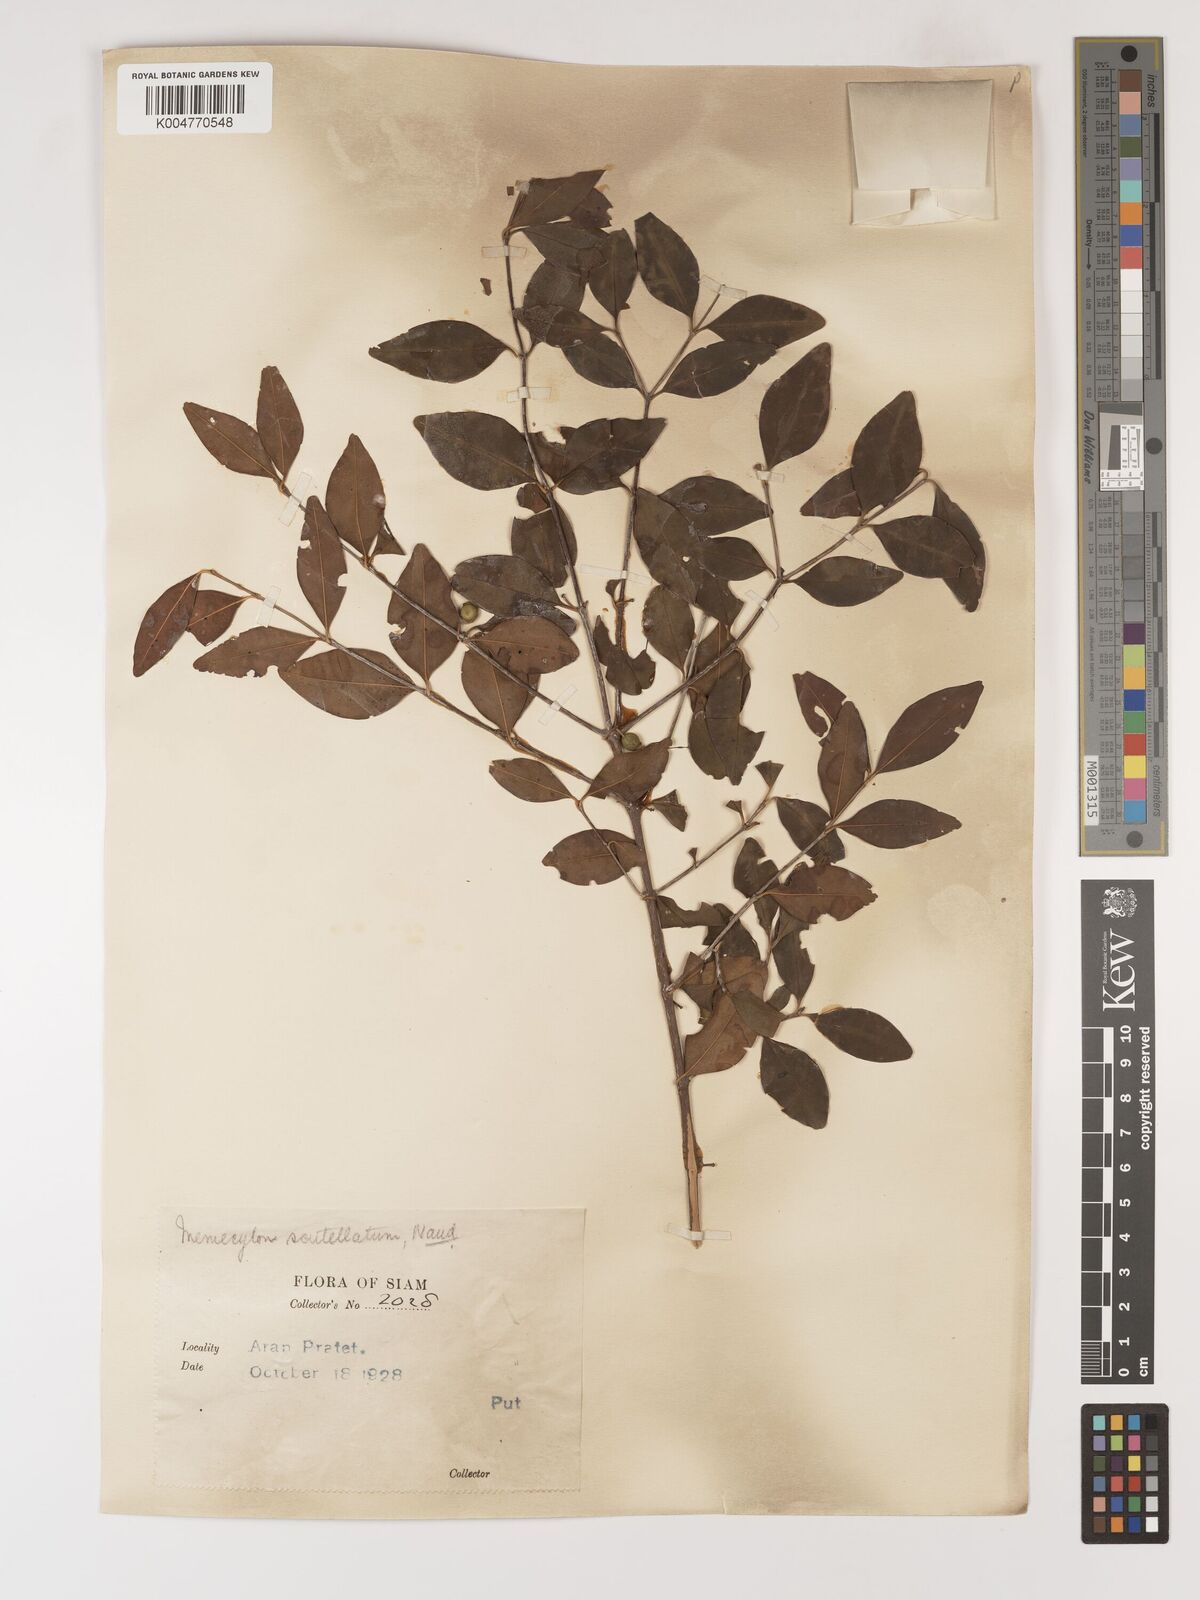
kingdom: Plantae
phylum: Tracheophyta
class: Magnoliopsida
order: Myrtales
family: Melastomataceae
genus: Memecylon
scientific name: Memecylon scutellatum
